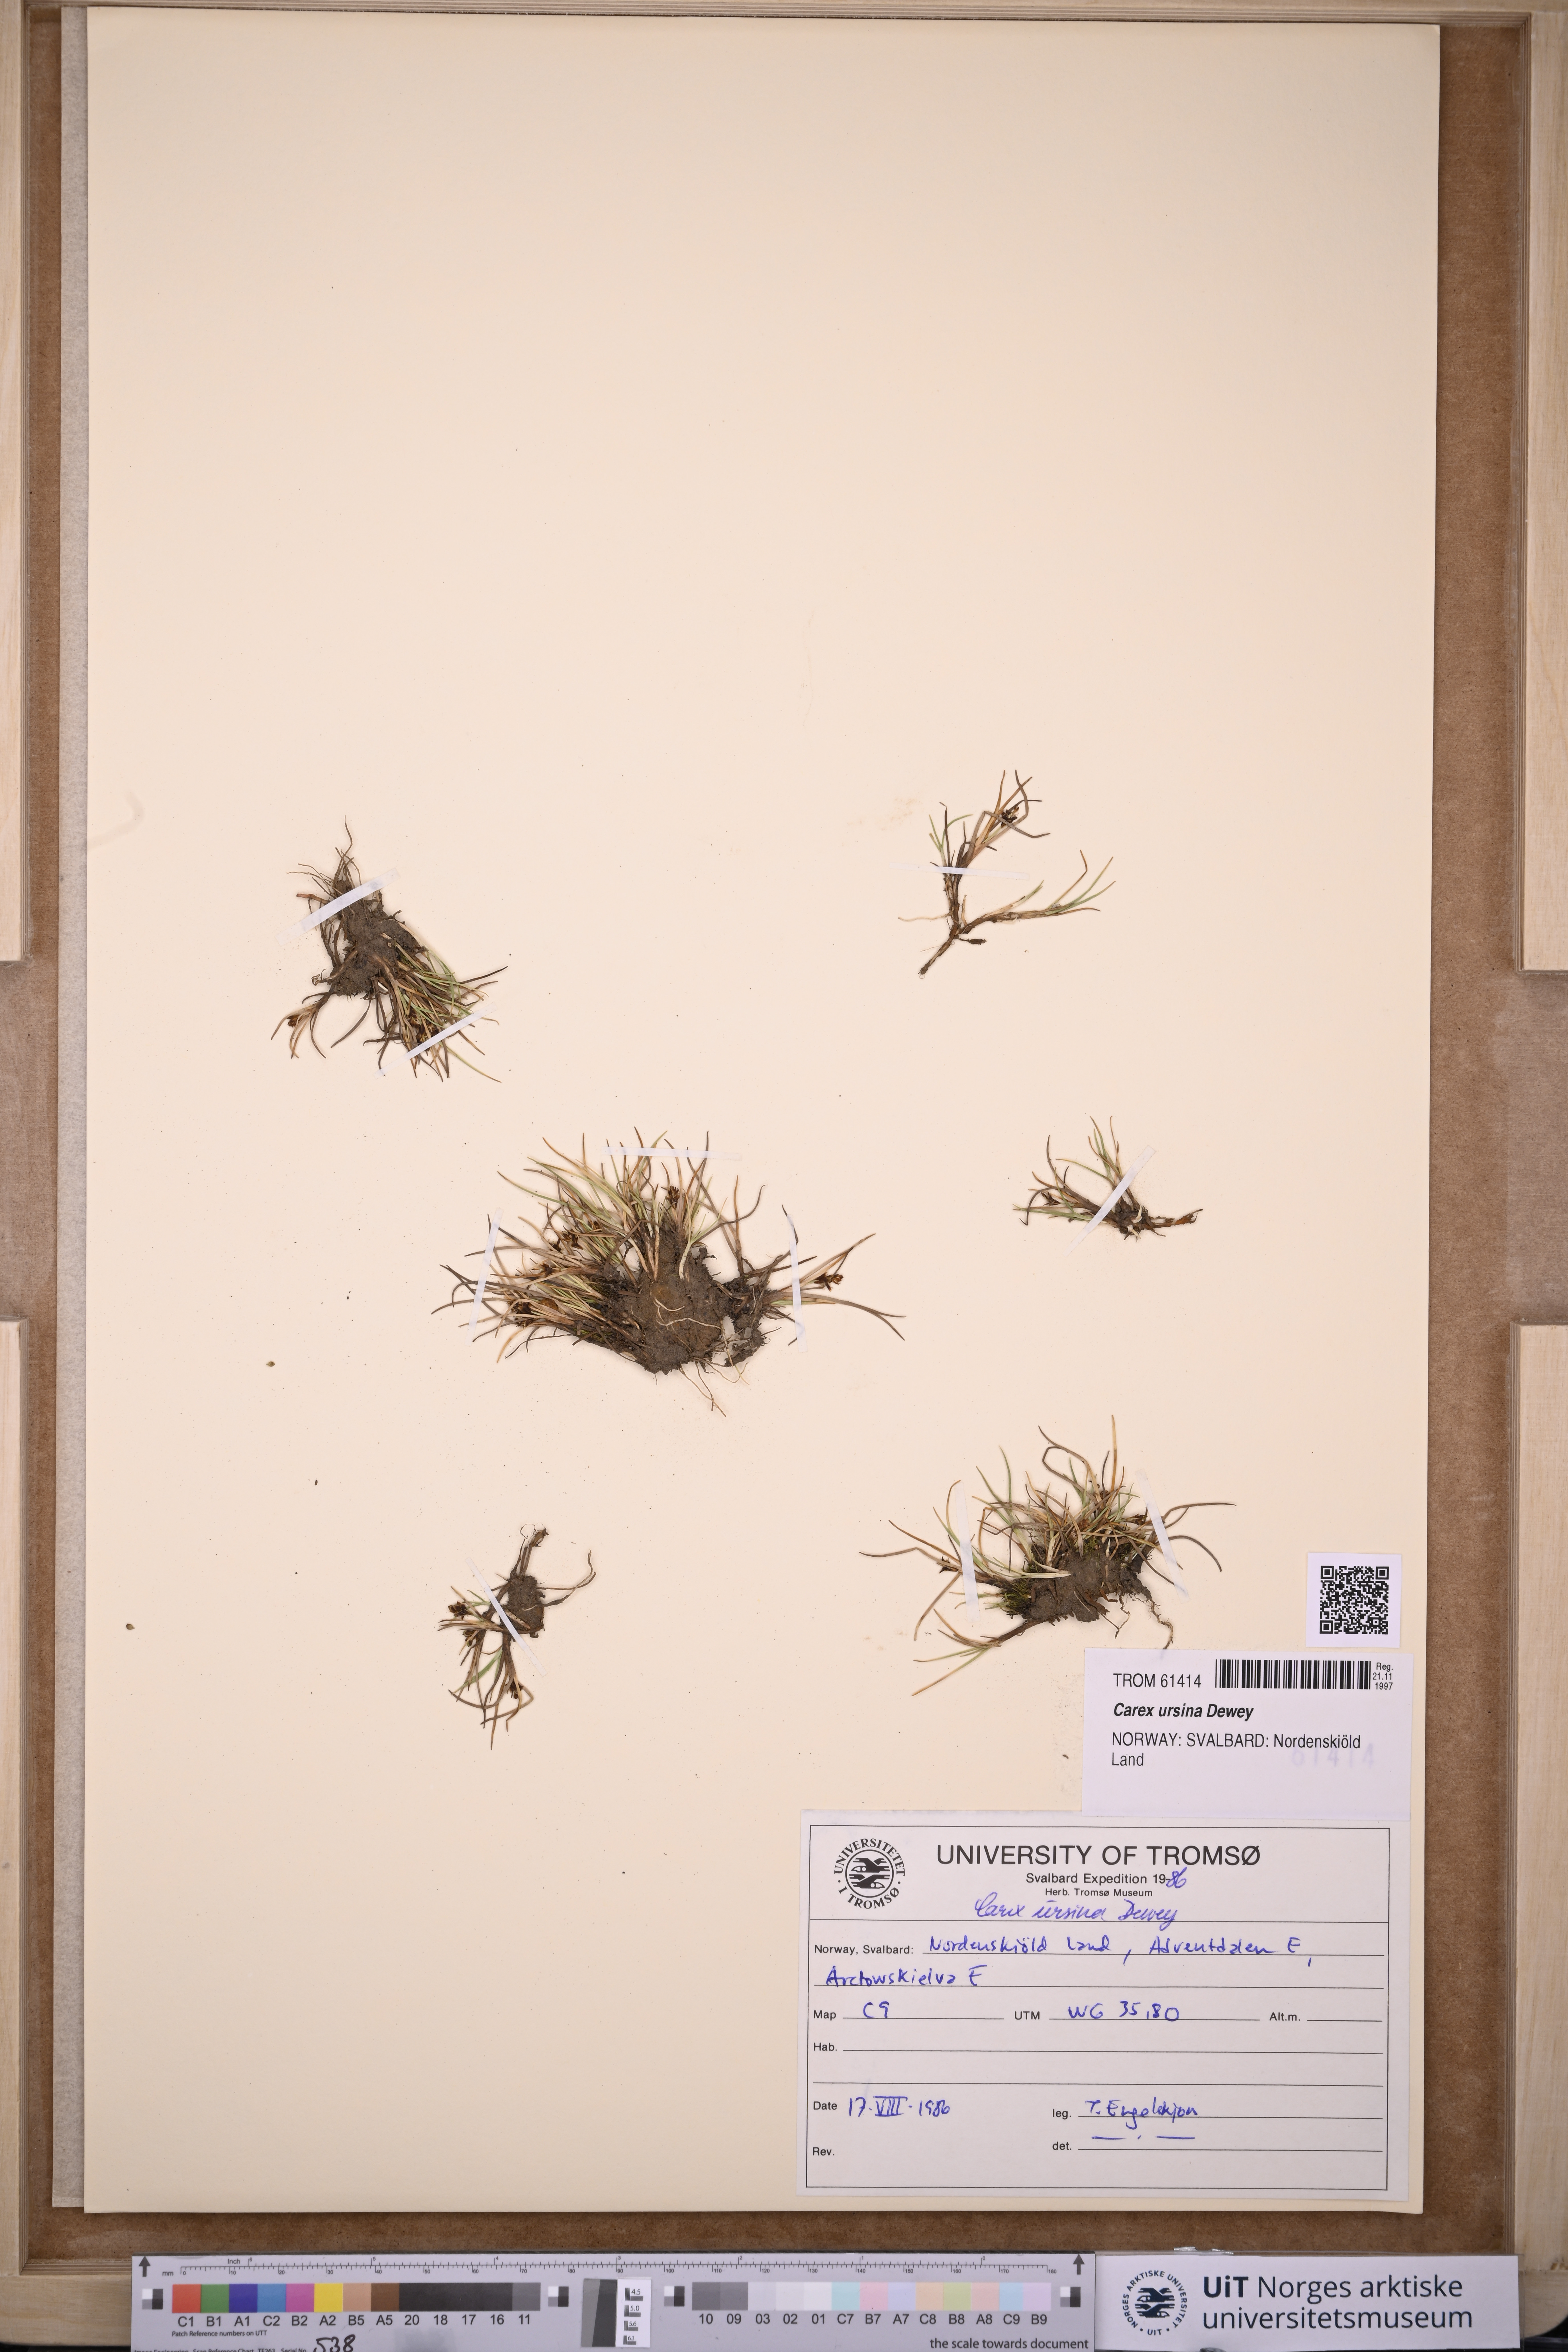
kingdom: Plantae
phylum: Tracheophyta
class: Liliopsida
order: Poales
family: Cyperaceae
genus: Carex
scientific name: Carex ursina
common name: Bear sedge
